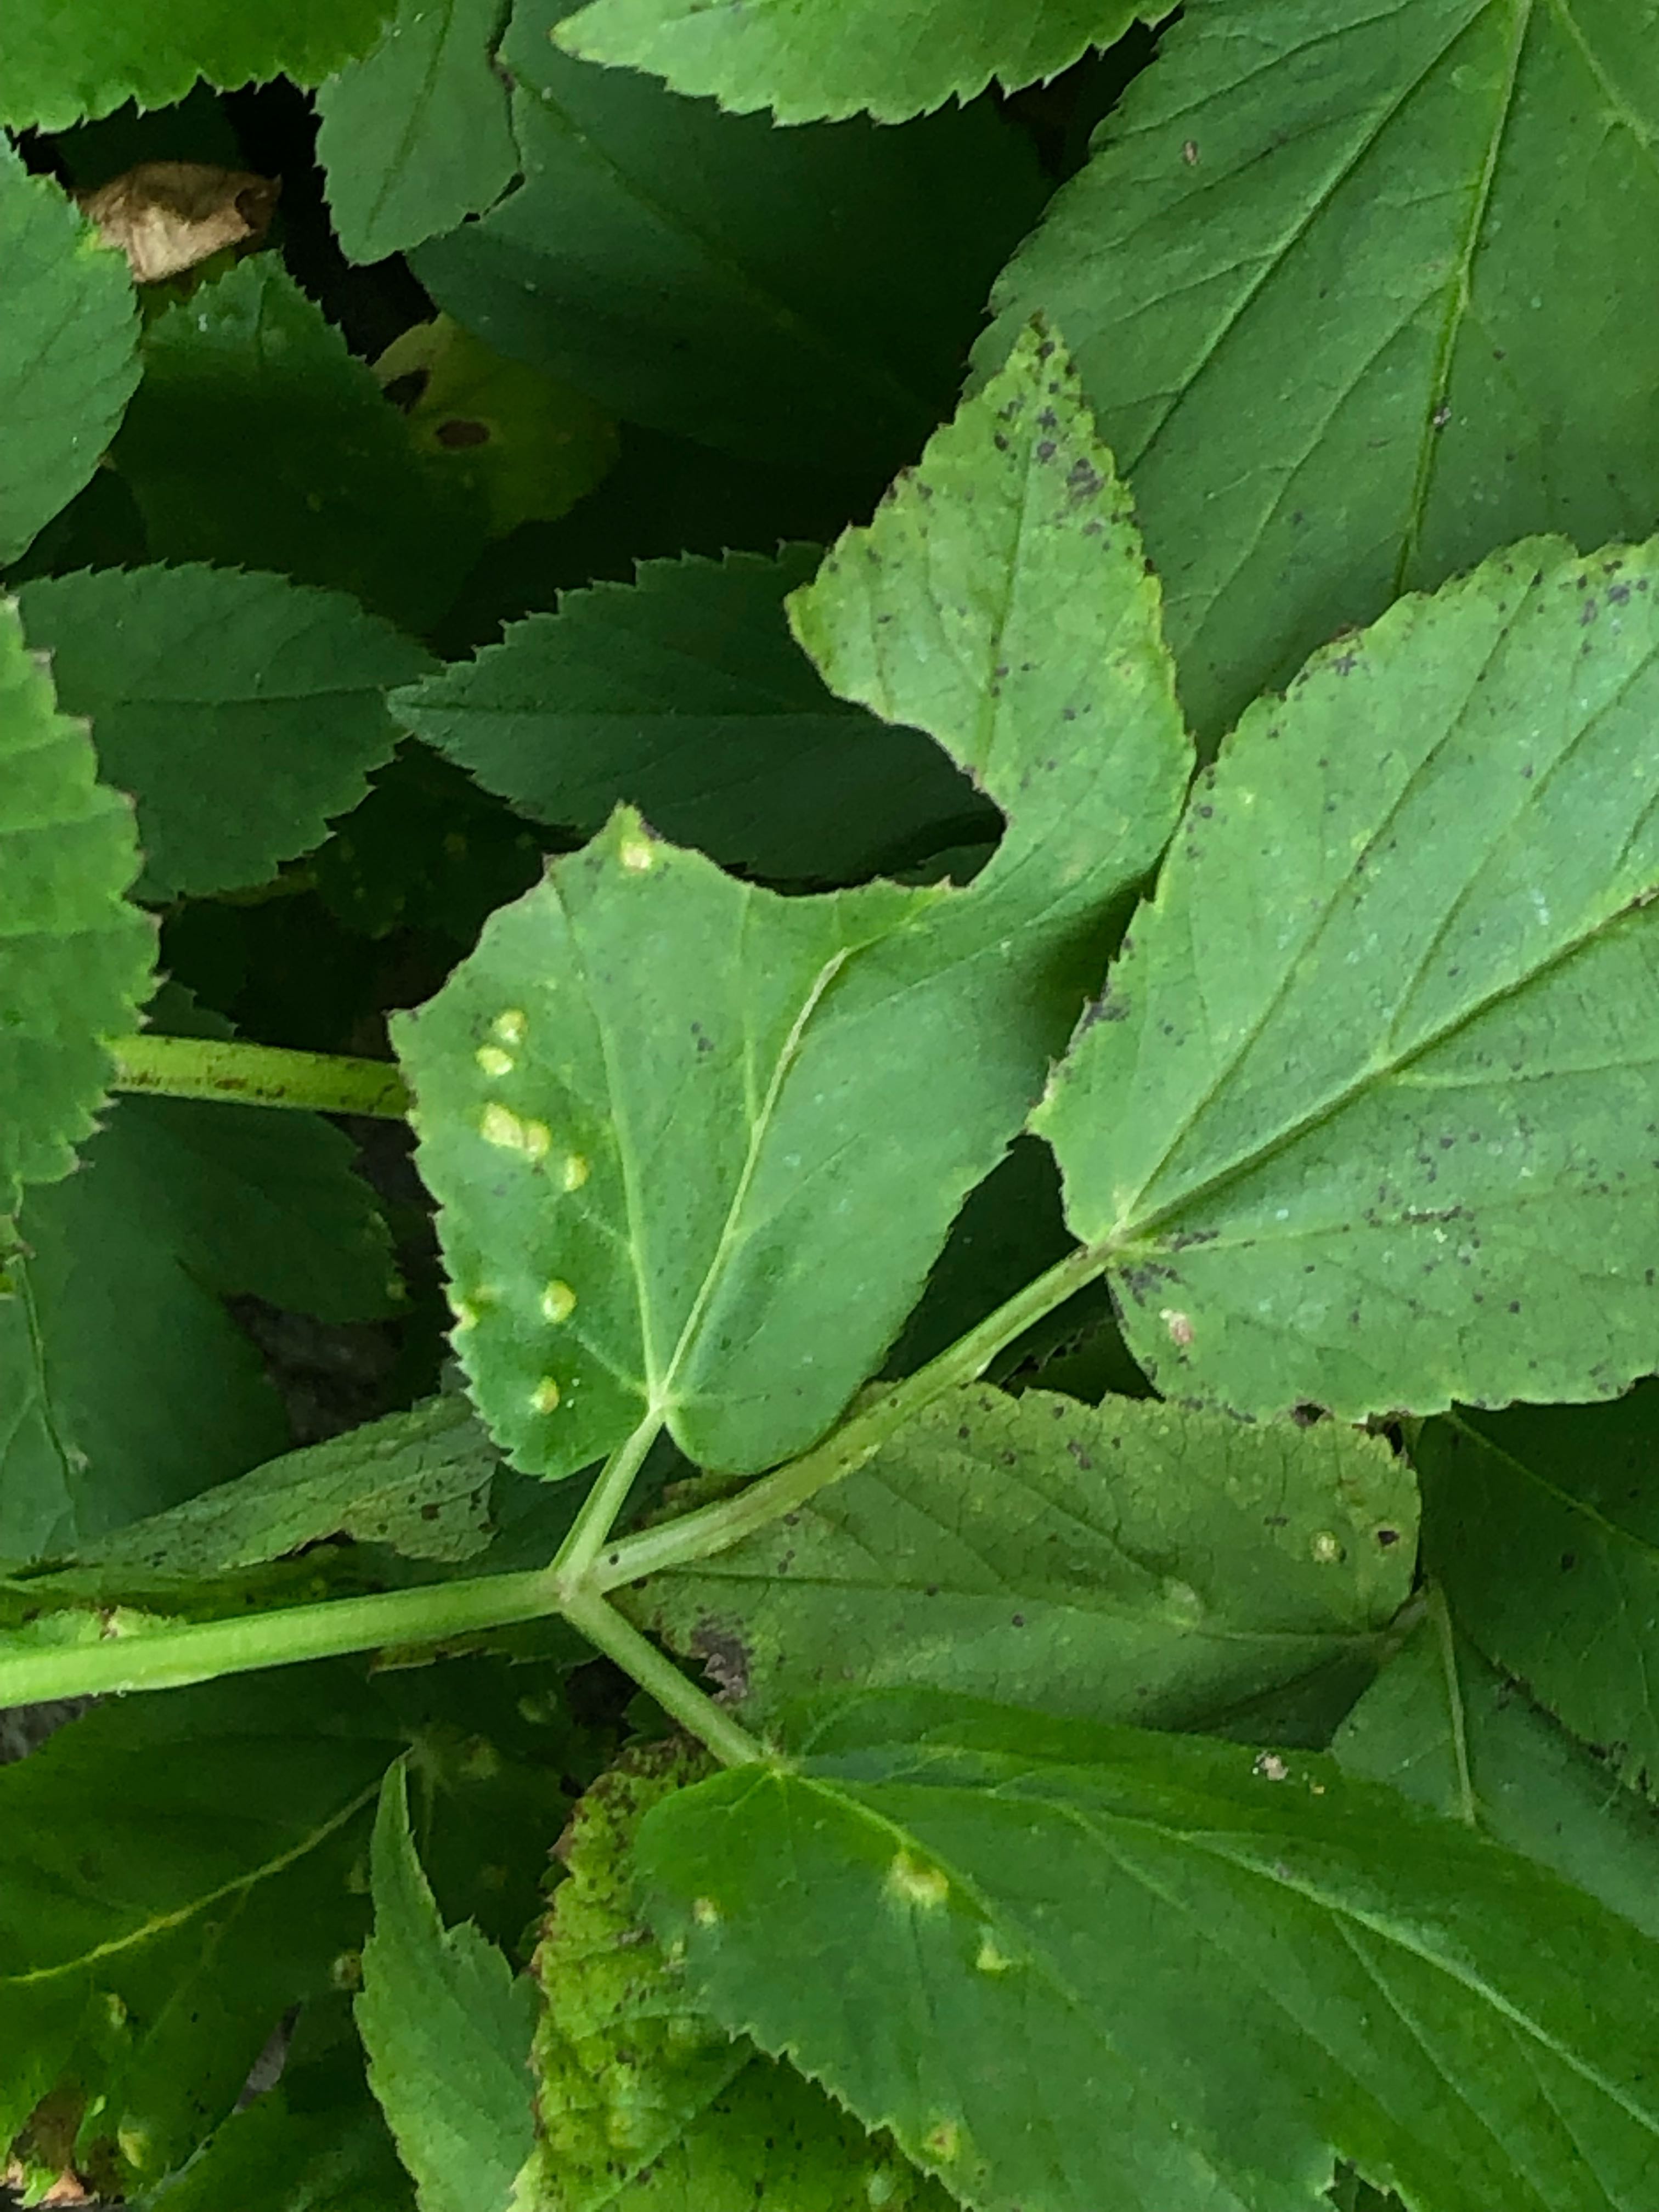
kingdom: Fungi
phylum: Ascomycota
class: Taphrinomycetes
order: Taphrinales
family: Taphrinaceae
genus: Protomyces
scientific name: Protomyces macrosporus
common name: skvalderkål-vablesæk
